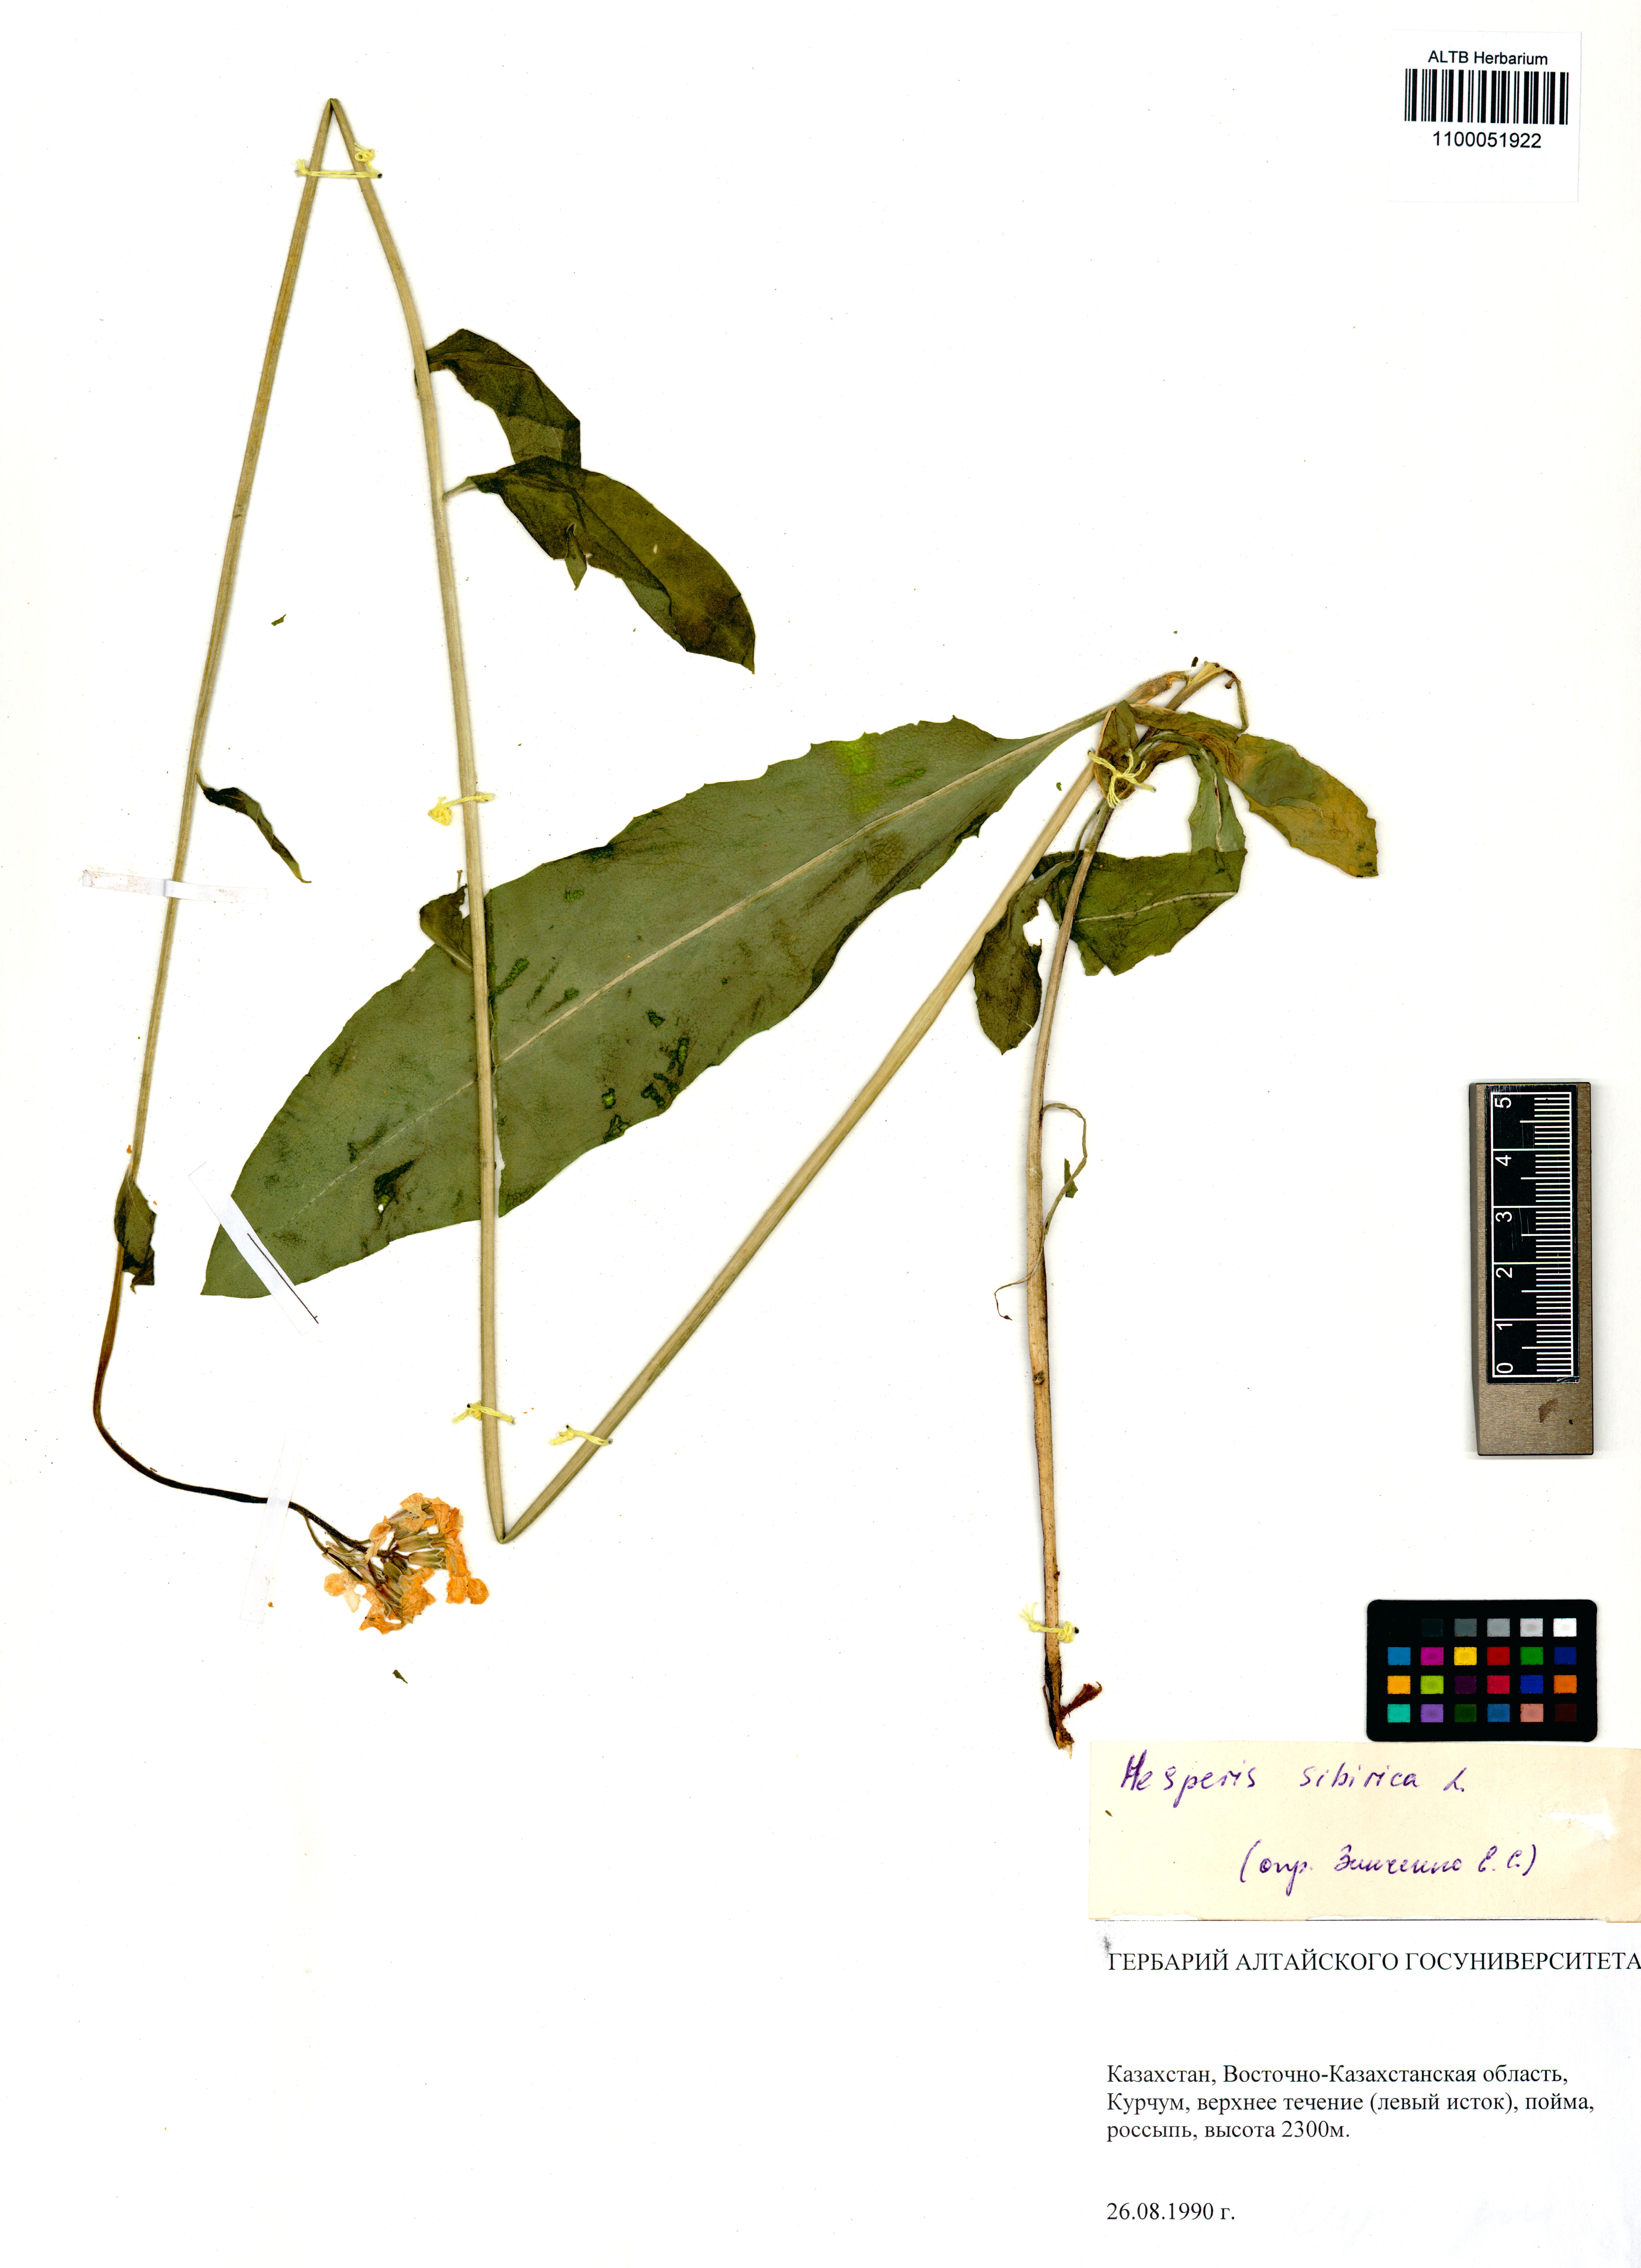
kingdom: Plantae
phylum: Tracheophyta
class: Magnoliopsida
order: Brassicales
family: Brassicaceae
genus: Hesperis
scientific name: Hesperis sibirica
